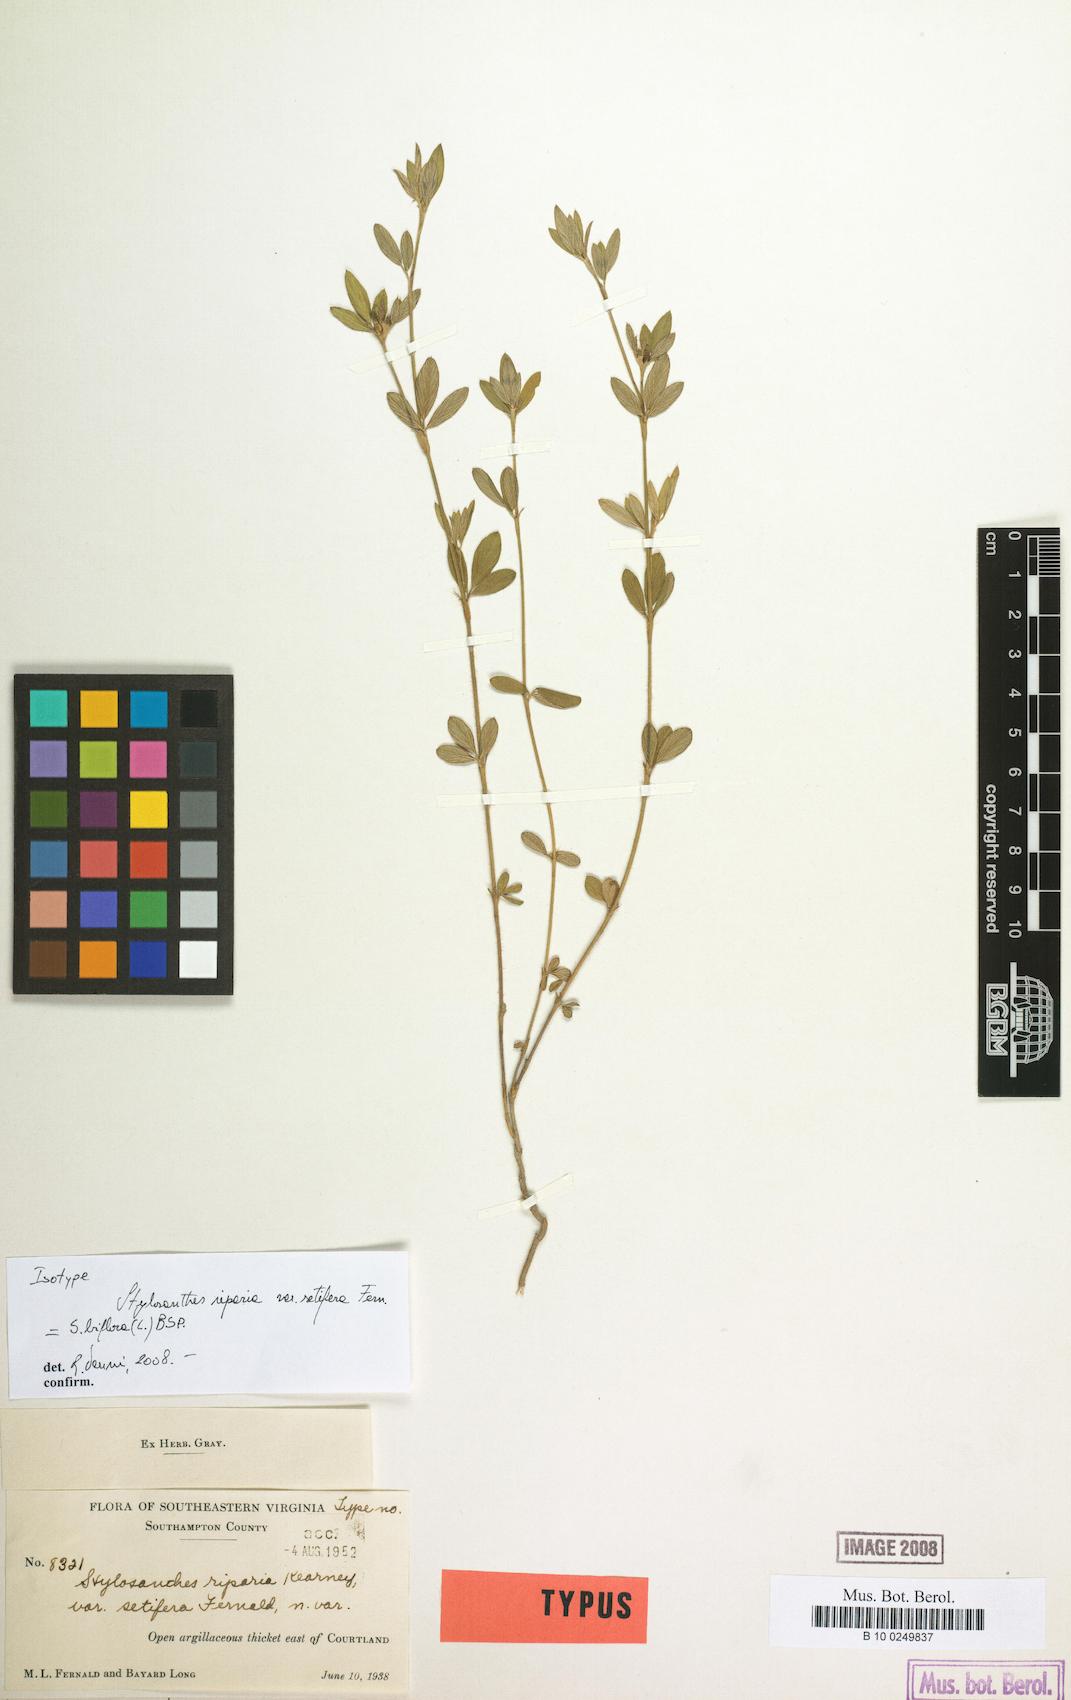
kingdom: Plantae
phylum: Tracheophyta
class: Magnoliopsida
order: Fabales
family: Fabaceae
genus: Stylosanthes
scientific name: Stylosanthes biflora
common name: Two-flower pencil-flower
